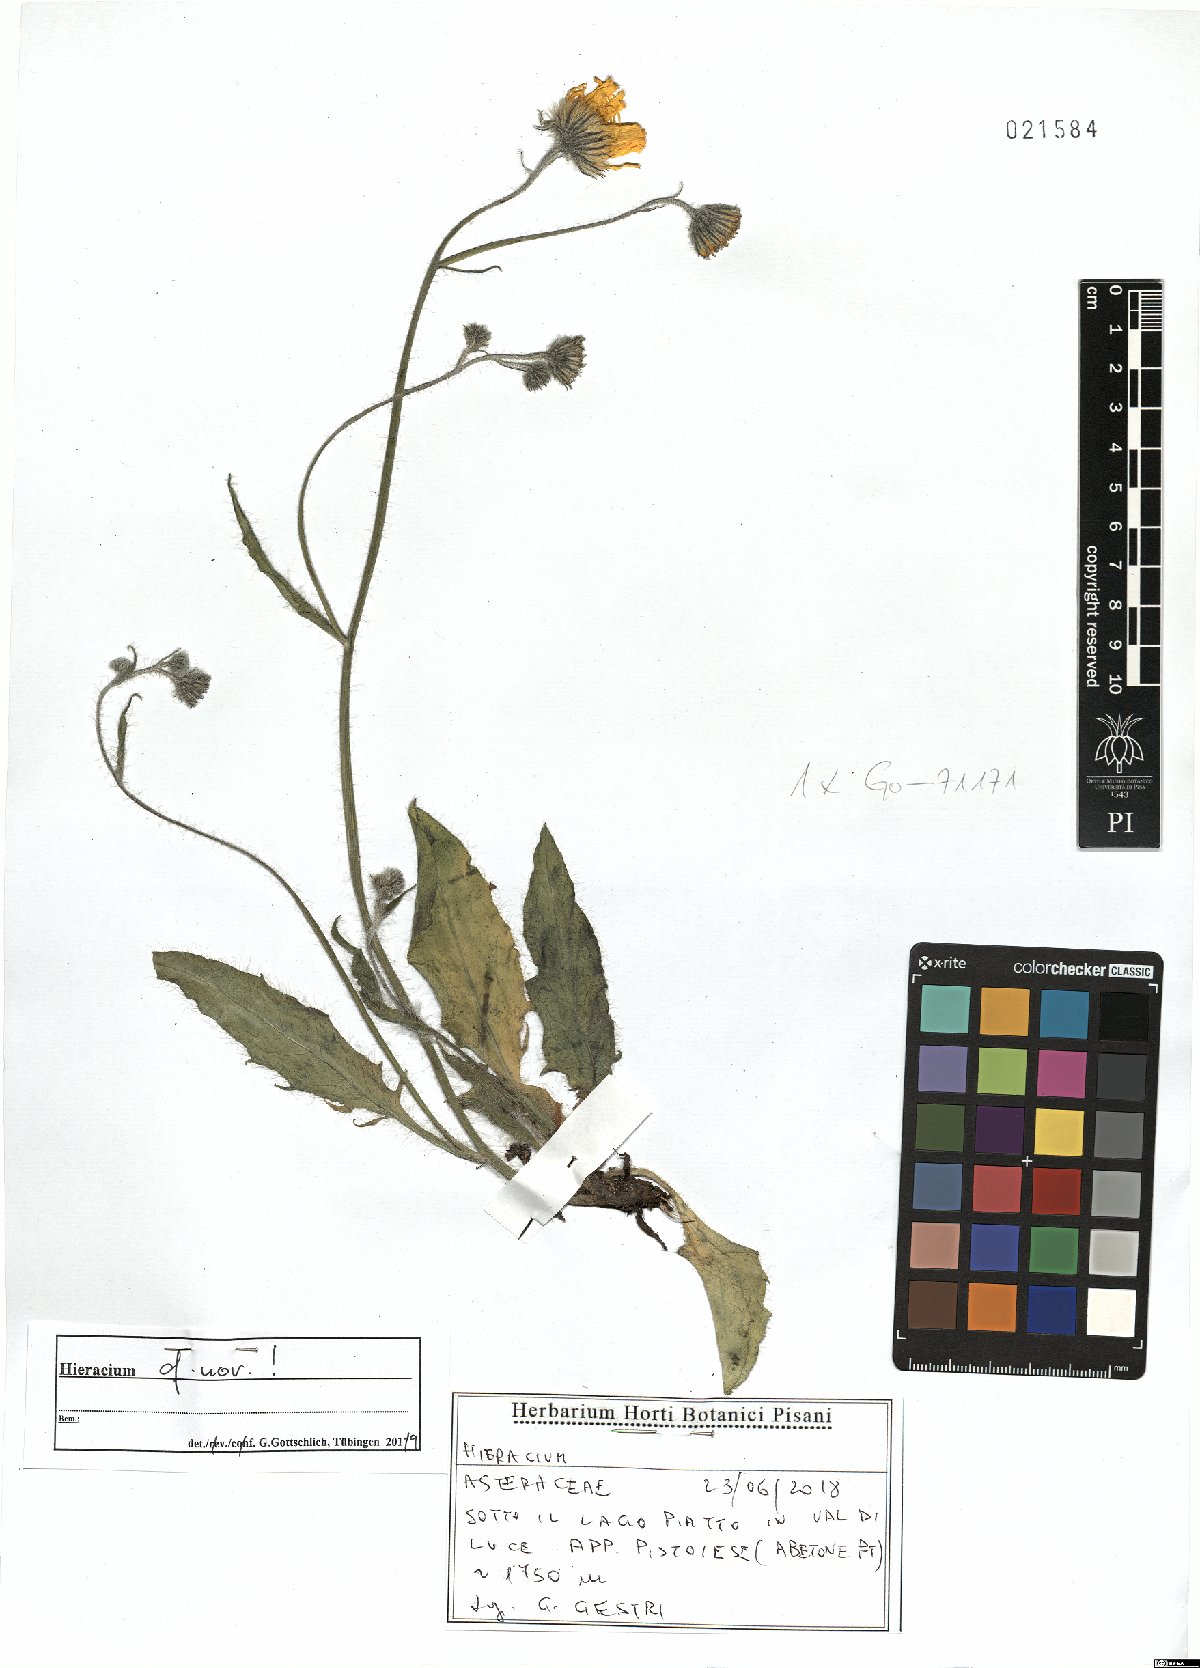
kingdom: Plantae
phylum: Tracheophyta
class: Magnoliopsida
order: Asterales
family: Asteraceae
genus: Hieracium
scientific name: Hieracium
